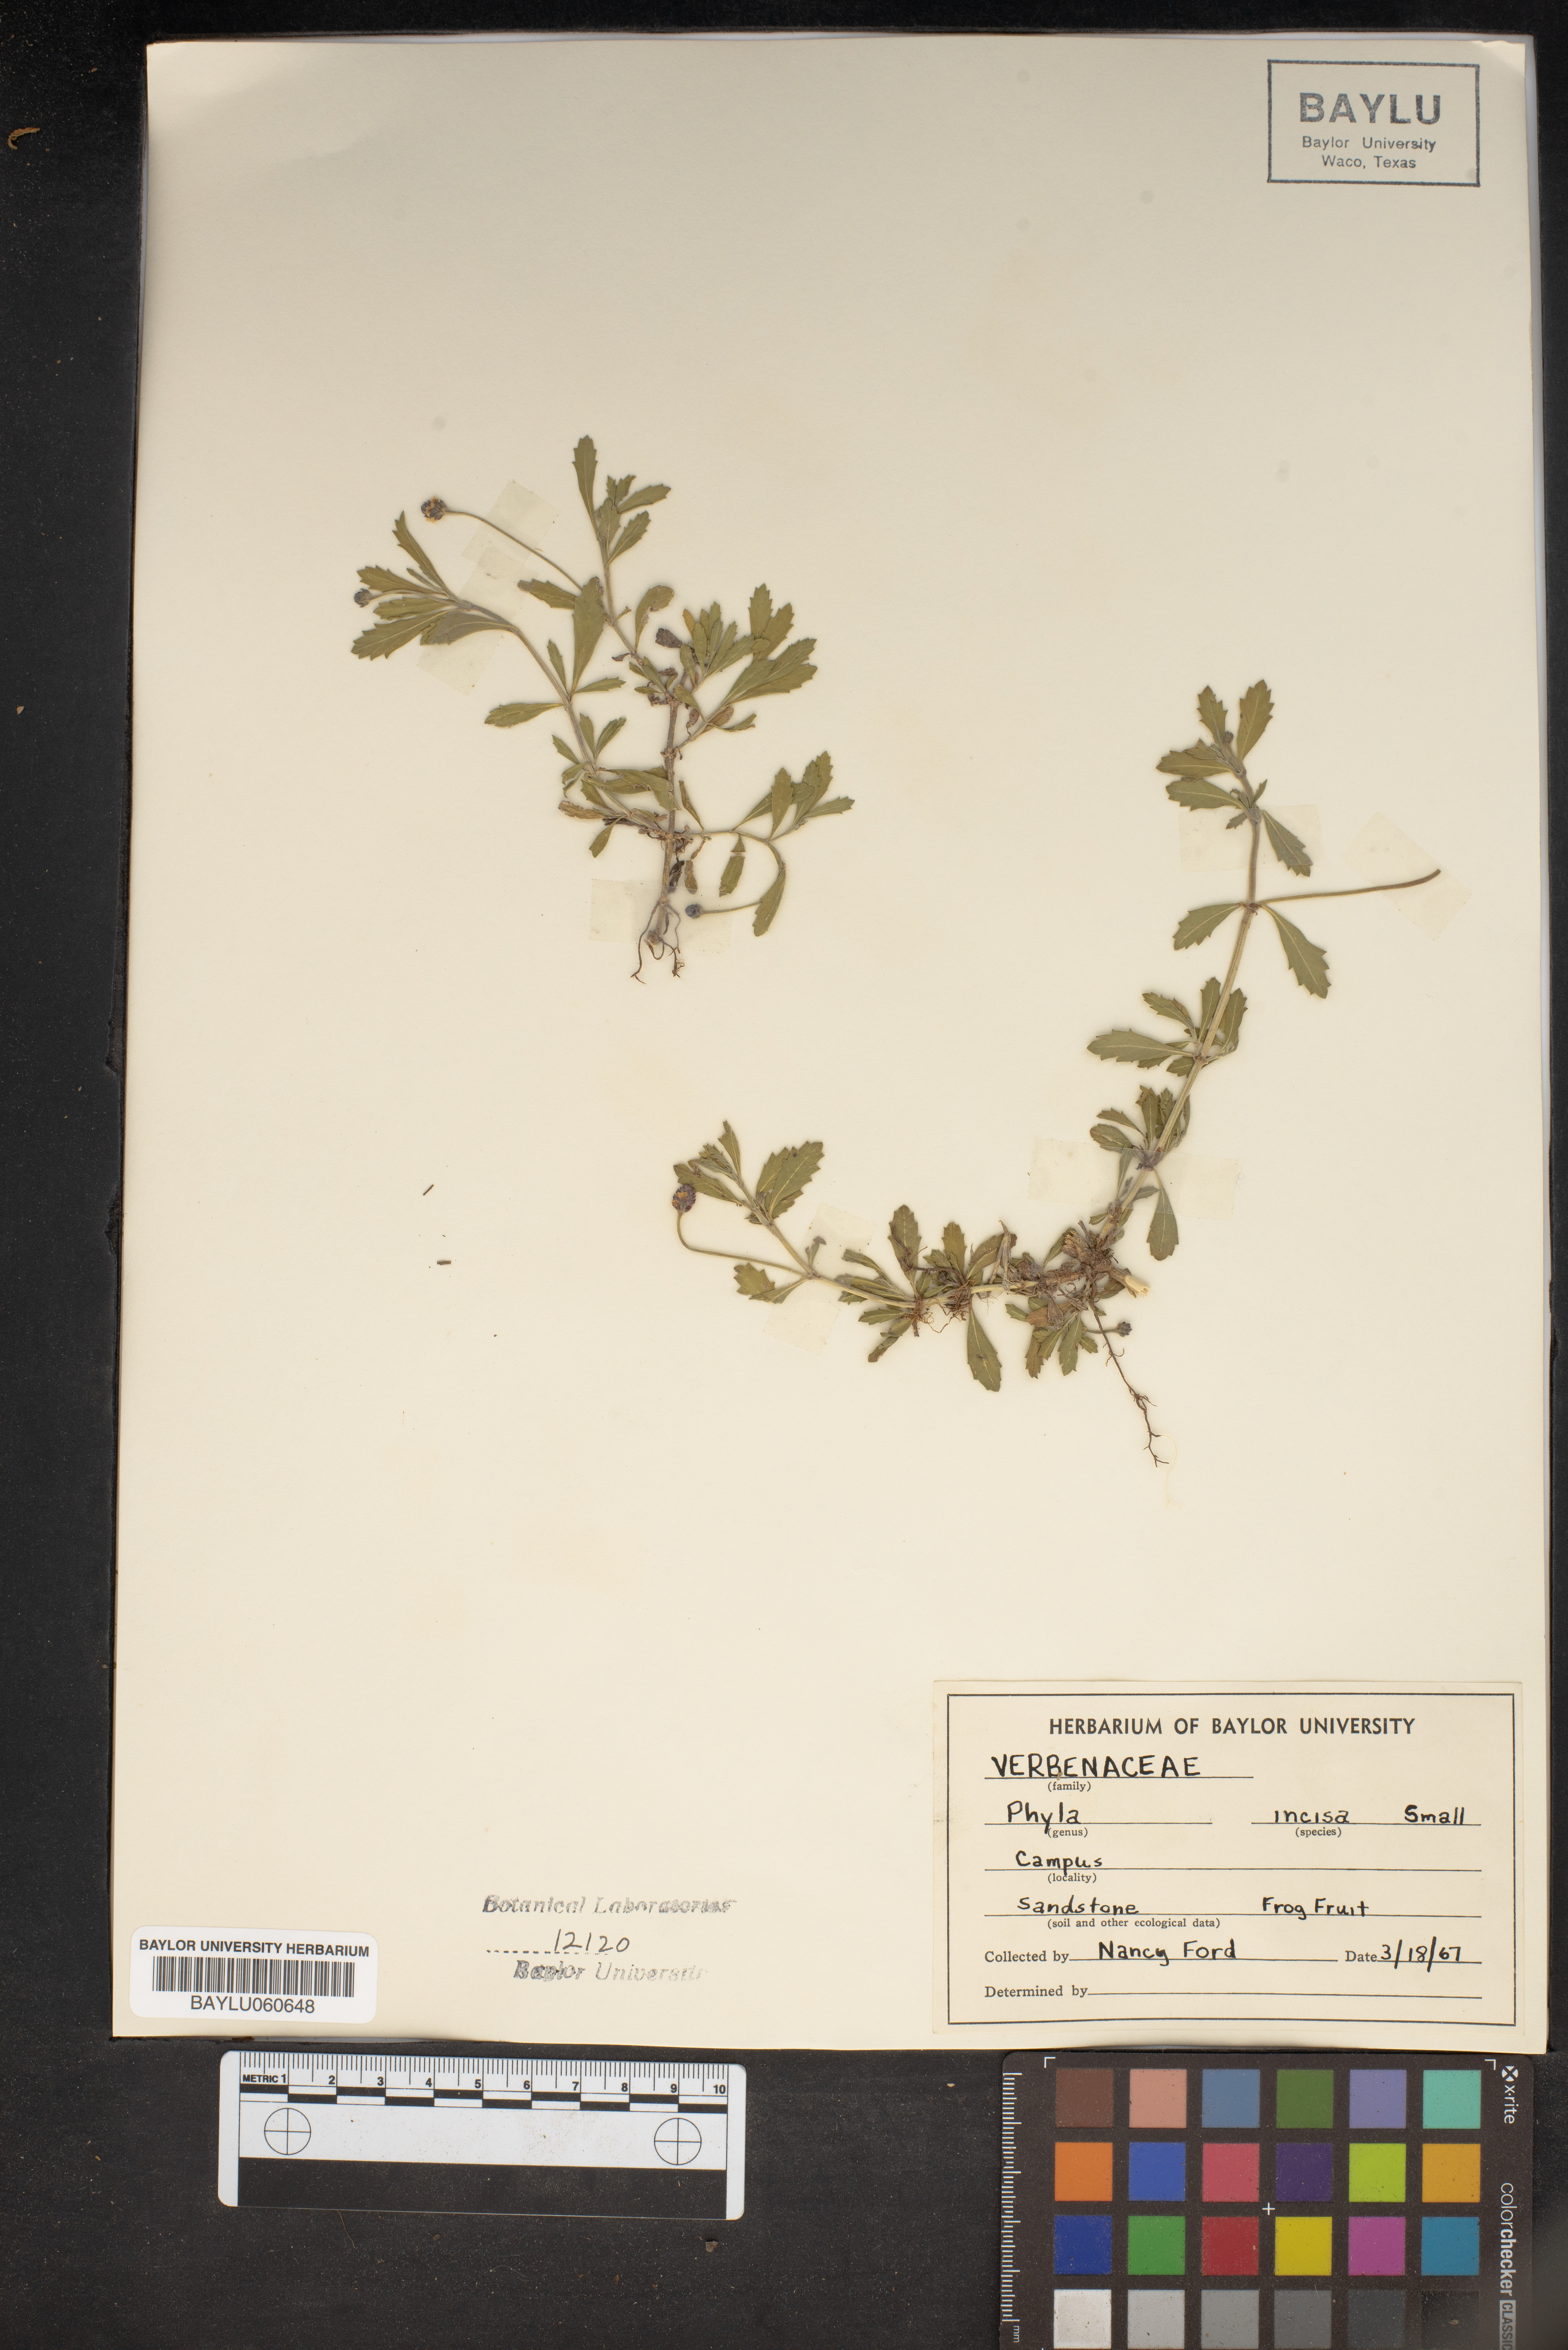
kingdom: Plantae
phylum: Tracheophyta
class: Magnoliopsida
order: Lamiales
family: Verbenaceae
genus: Phyla
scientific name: Phyla nodiflora
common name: Frogfruit
